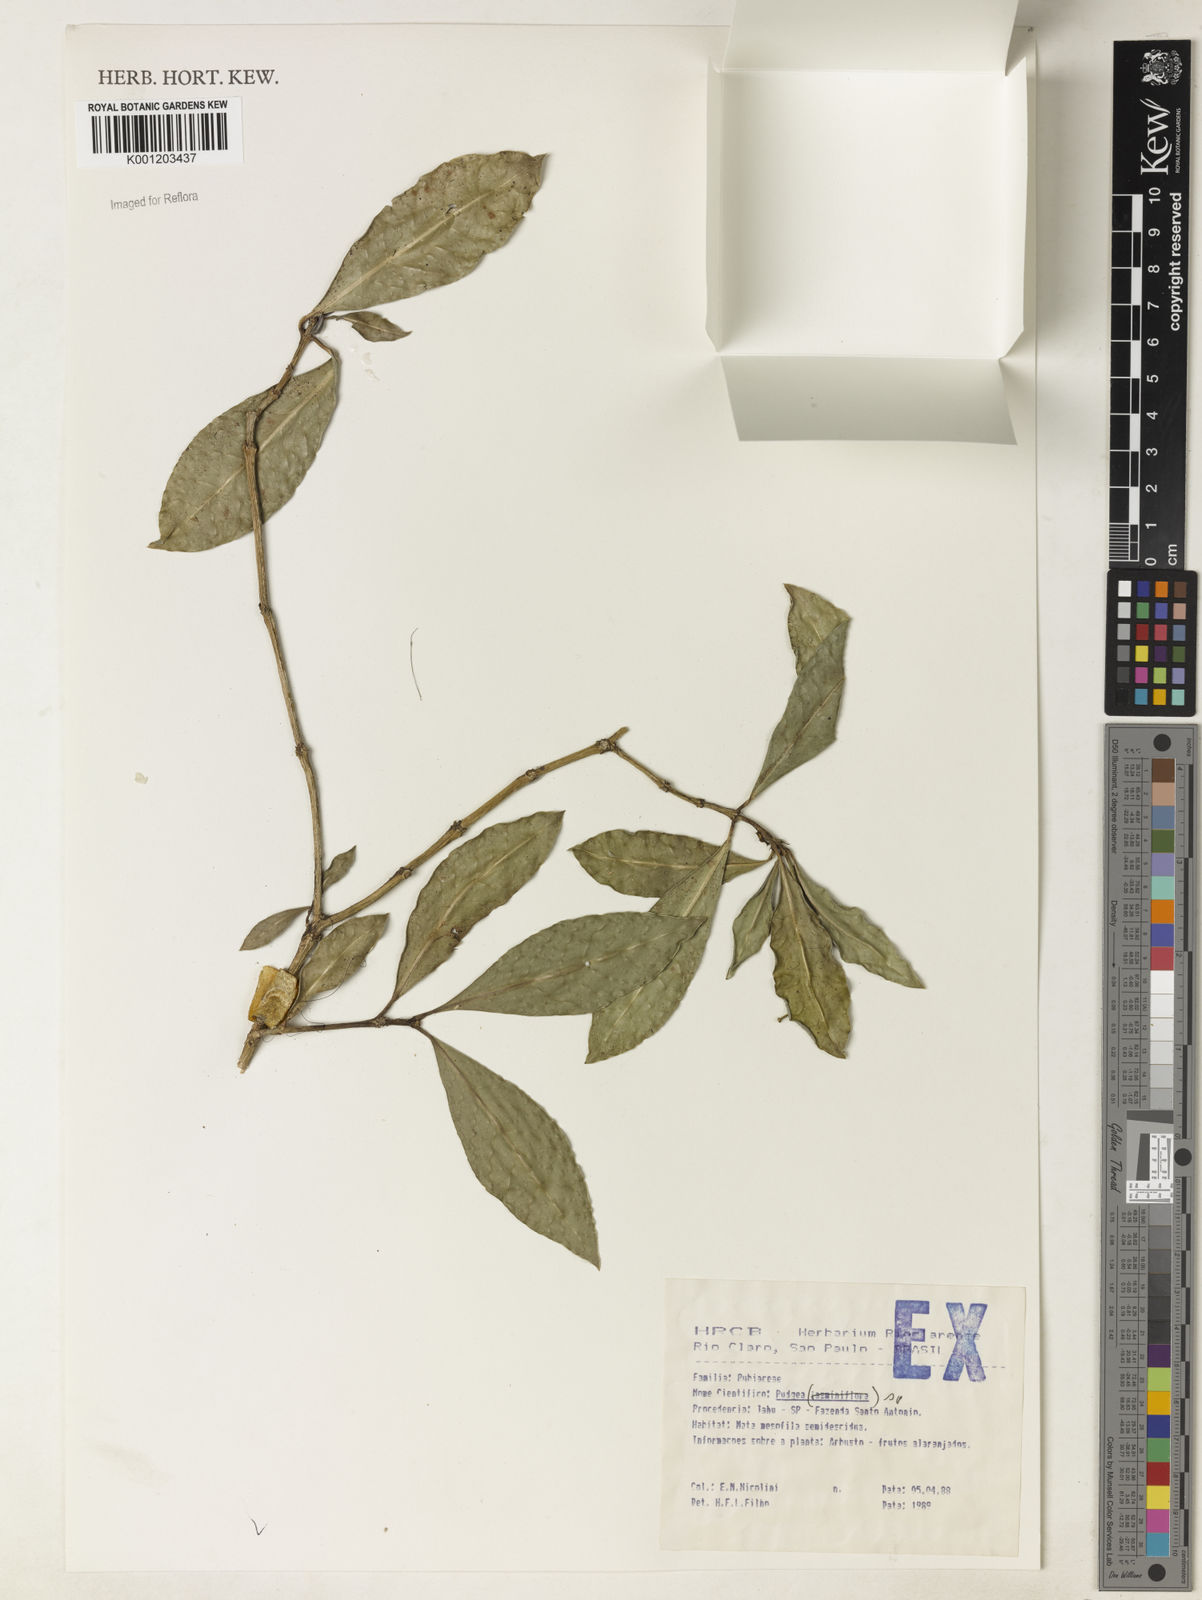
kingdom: Plantae
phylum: Tracheophyta
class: Magnoliopsida
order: Gentianales
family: Rubiaceae
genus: Rudgea
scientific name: Rudgea
